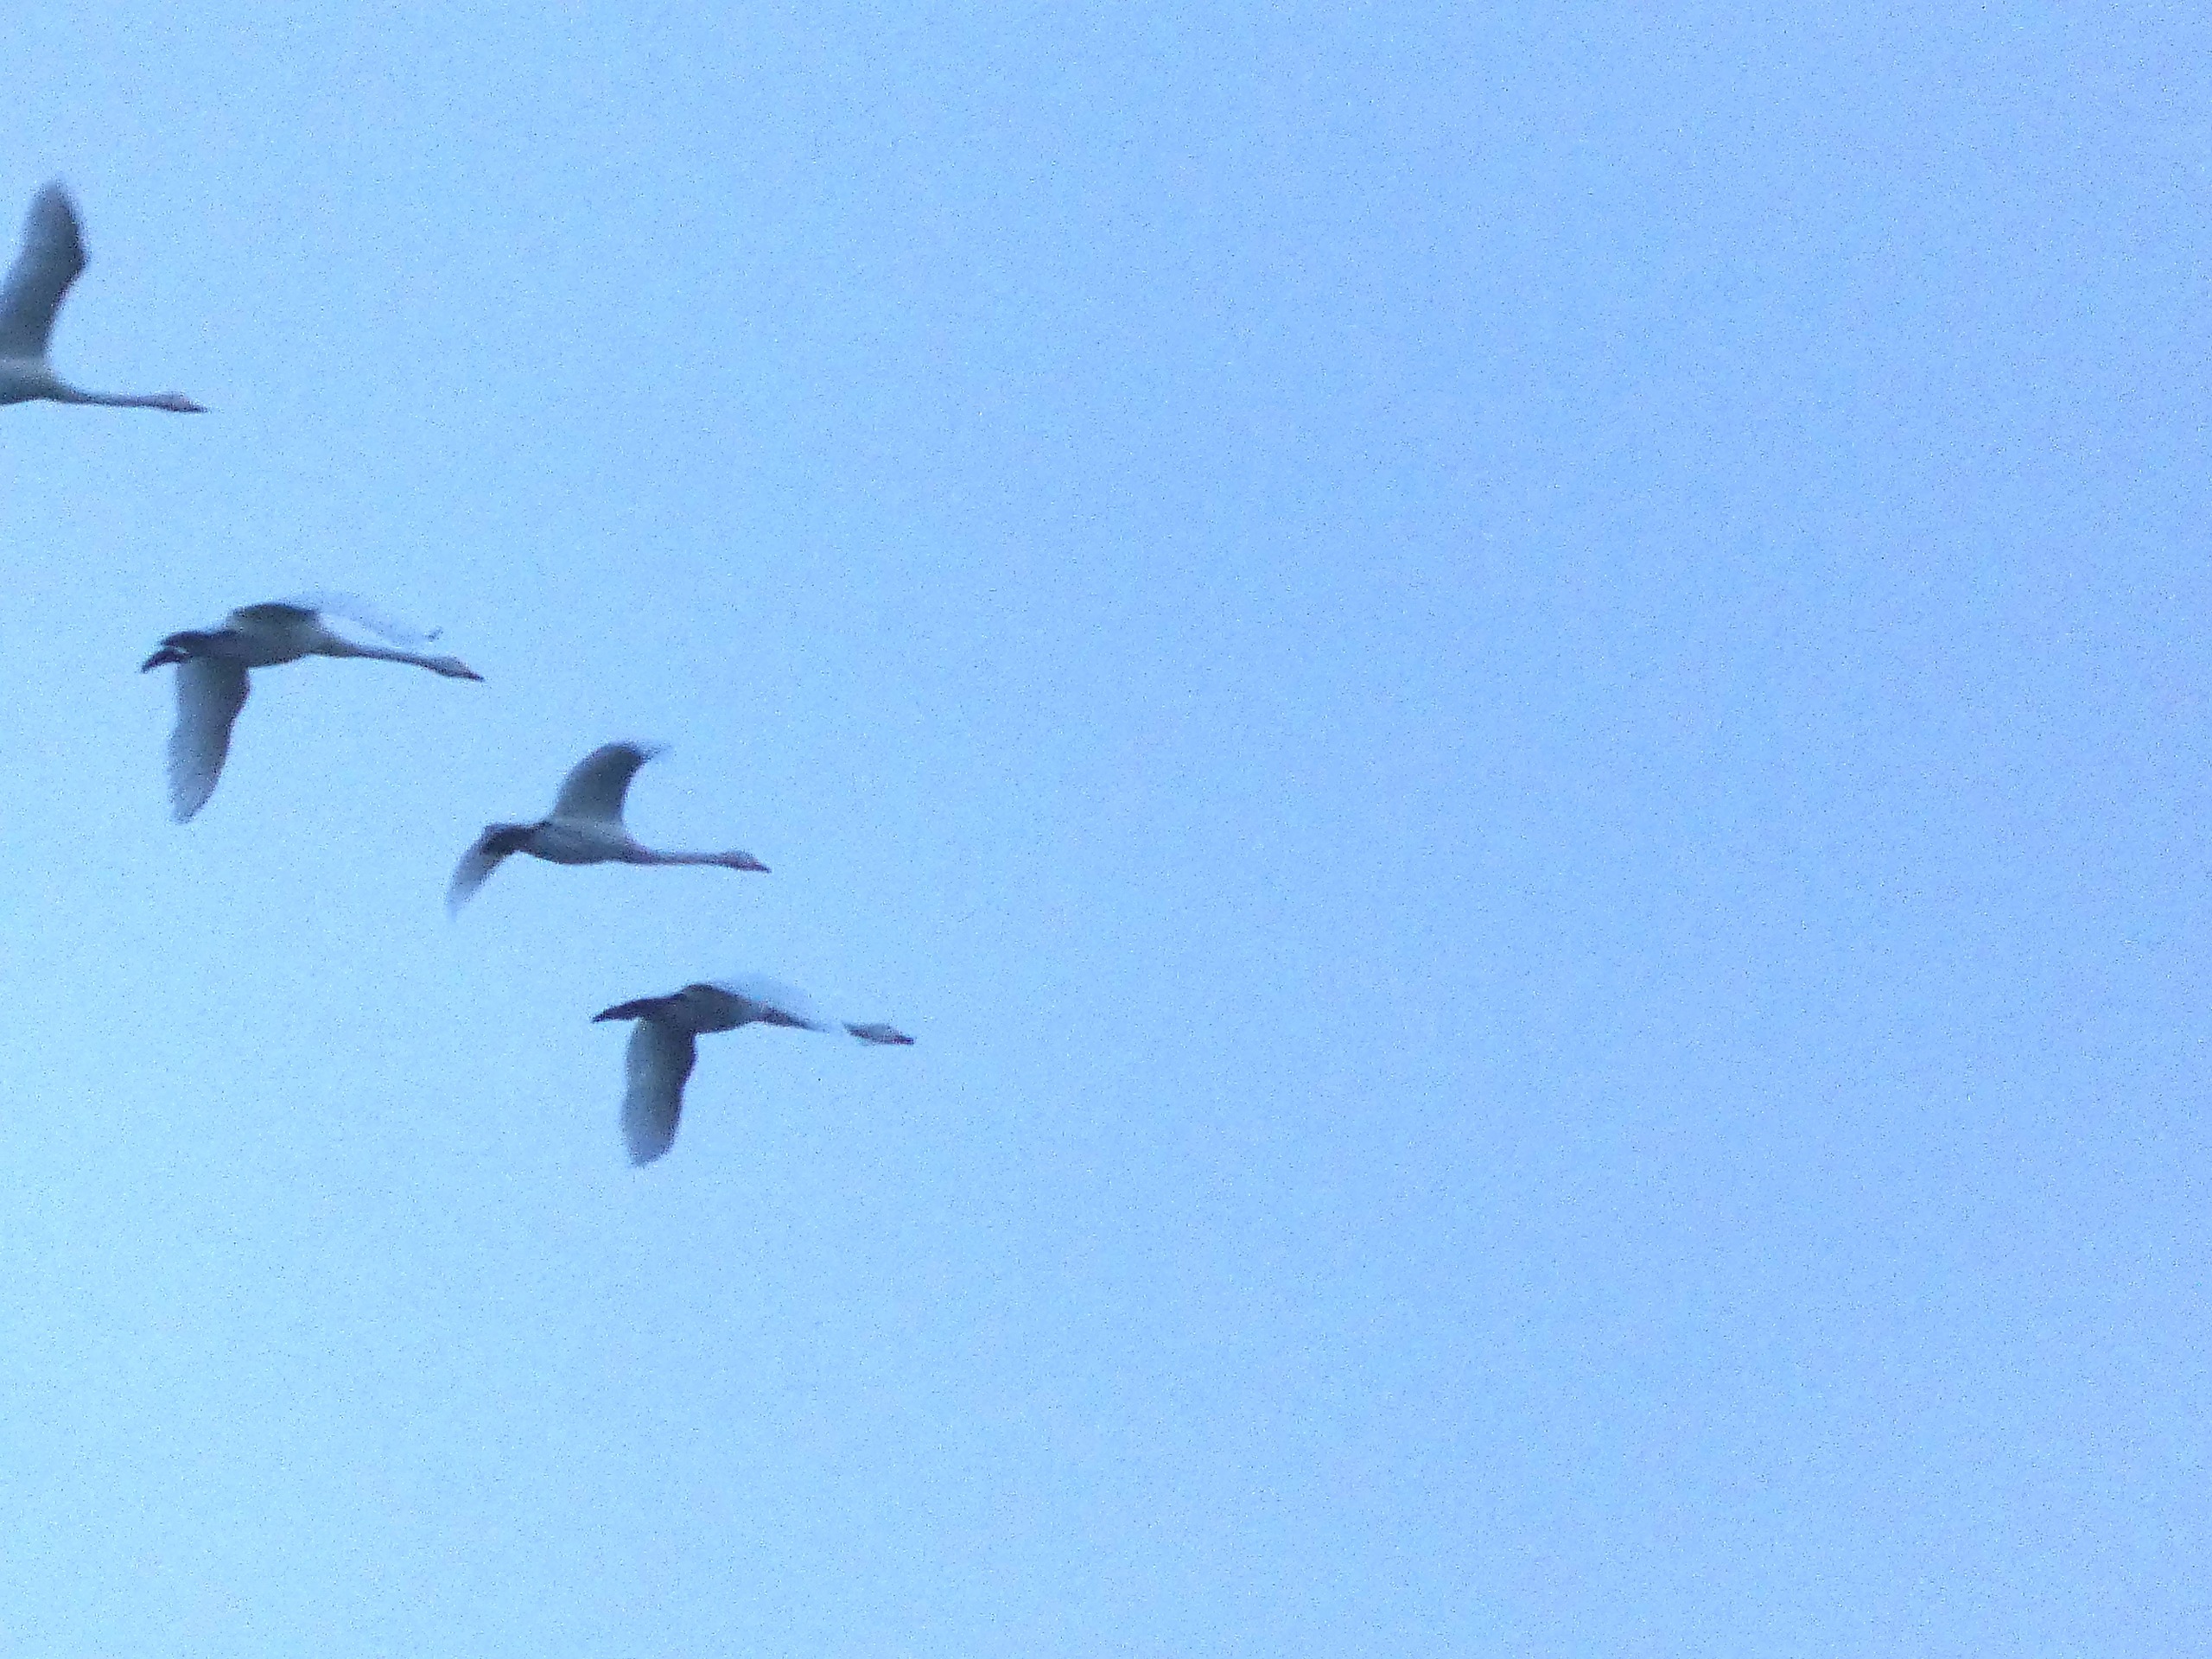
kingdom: Animalia
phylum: Chordata
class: Aves
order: Anseriformes
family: Anatidae
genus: Cygnus
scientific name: Cygnus cygnus
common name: Sangsvane
